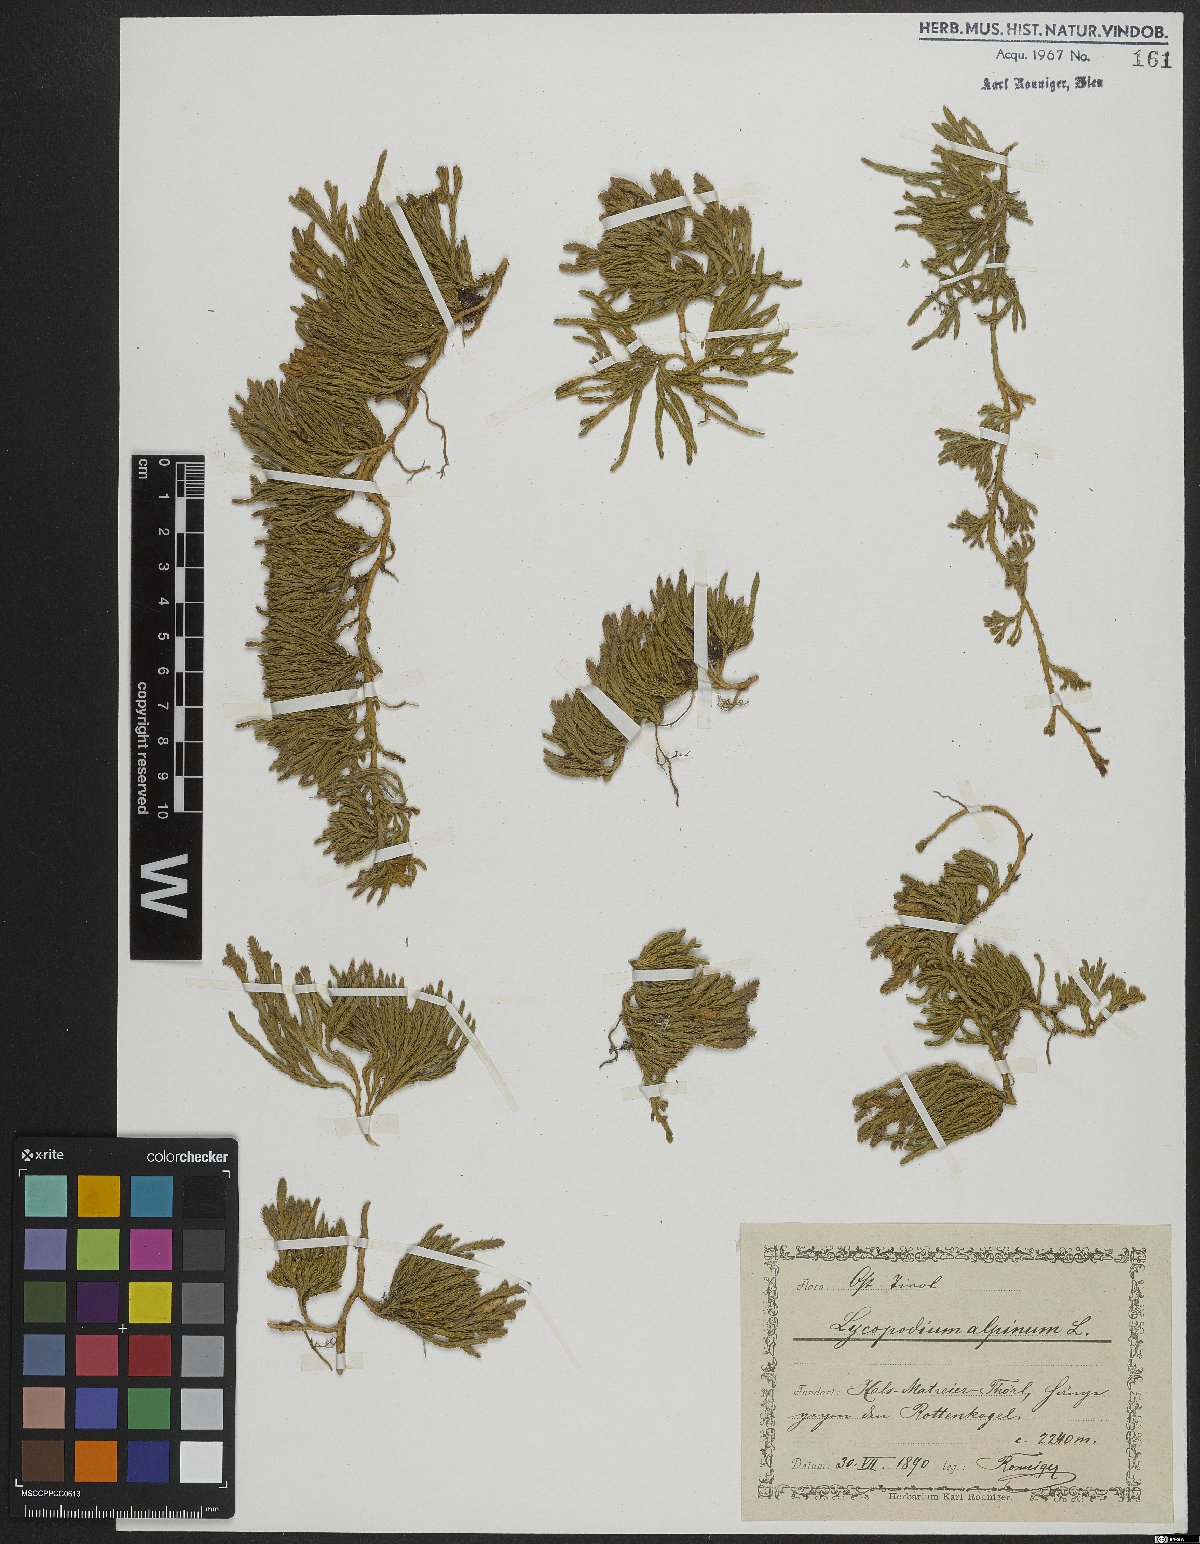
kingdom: Plantae
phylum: Tracheophyta
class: Lycopodiopsida
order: Lycopodiales
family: Lycopodiaceae
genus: Diphasiastrum
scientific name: Diphasiastrum alpinum
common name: Alpine clubmoss
